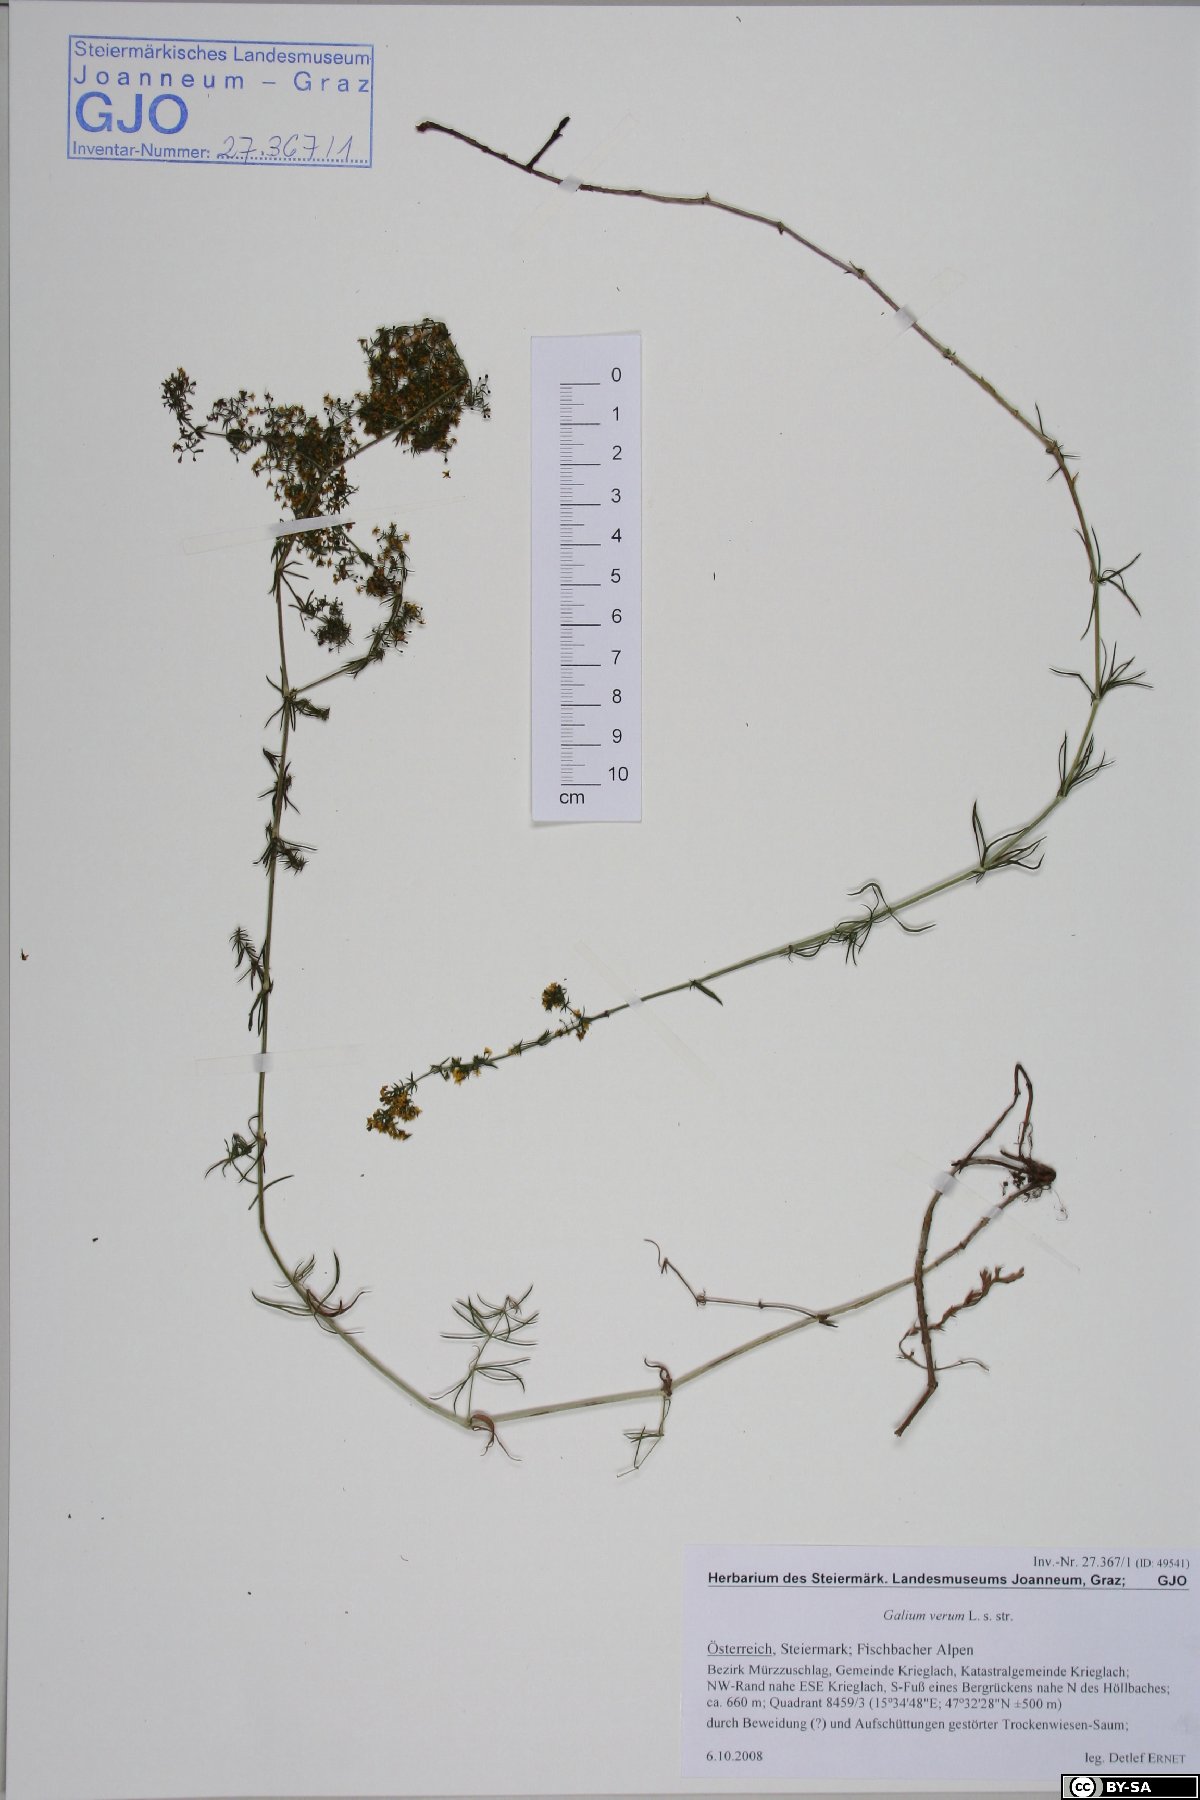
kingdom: Plantae
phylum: Tracheophyta
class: Magnoliopsida
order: Gentianales
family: Rubiaceae
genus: Galium
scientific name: Galium verum
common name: Lady's bedstraw
